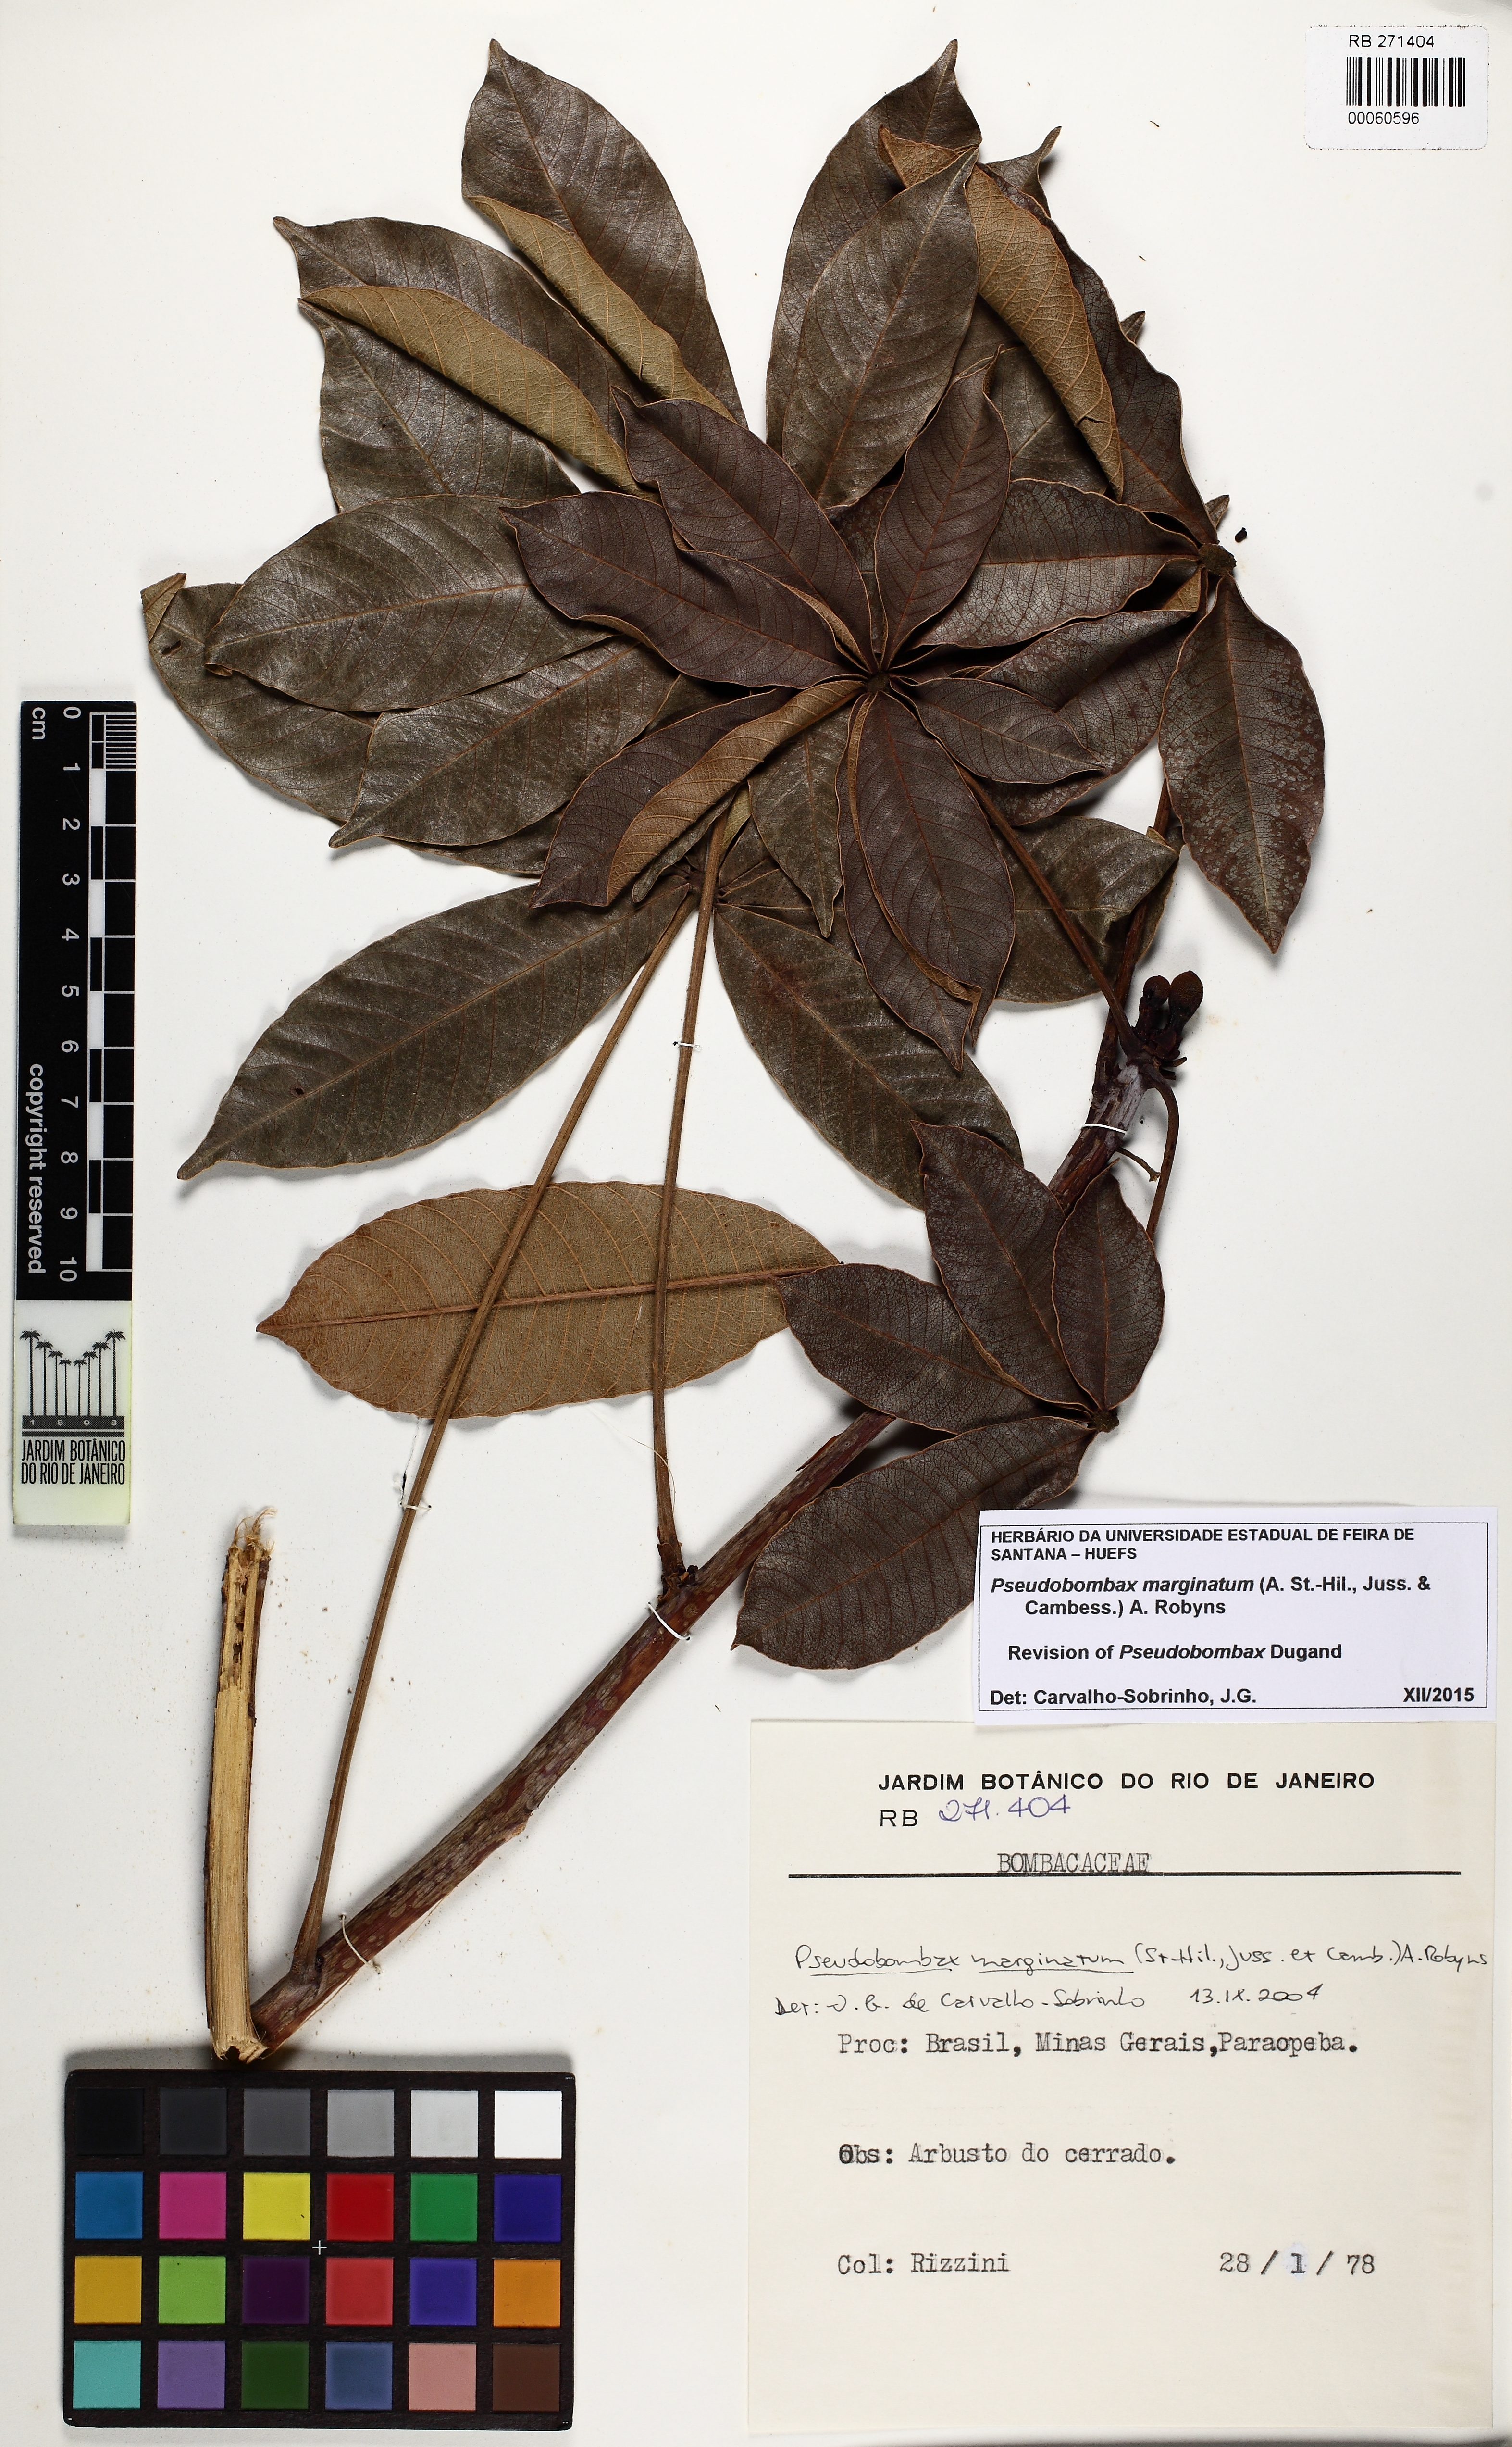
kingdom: Plantae
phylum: Tracheophyta
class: Magnoliopsida
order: Malvales
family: Malvaceae
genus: Pseudobombax
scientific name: Pseudobombax marginatum
